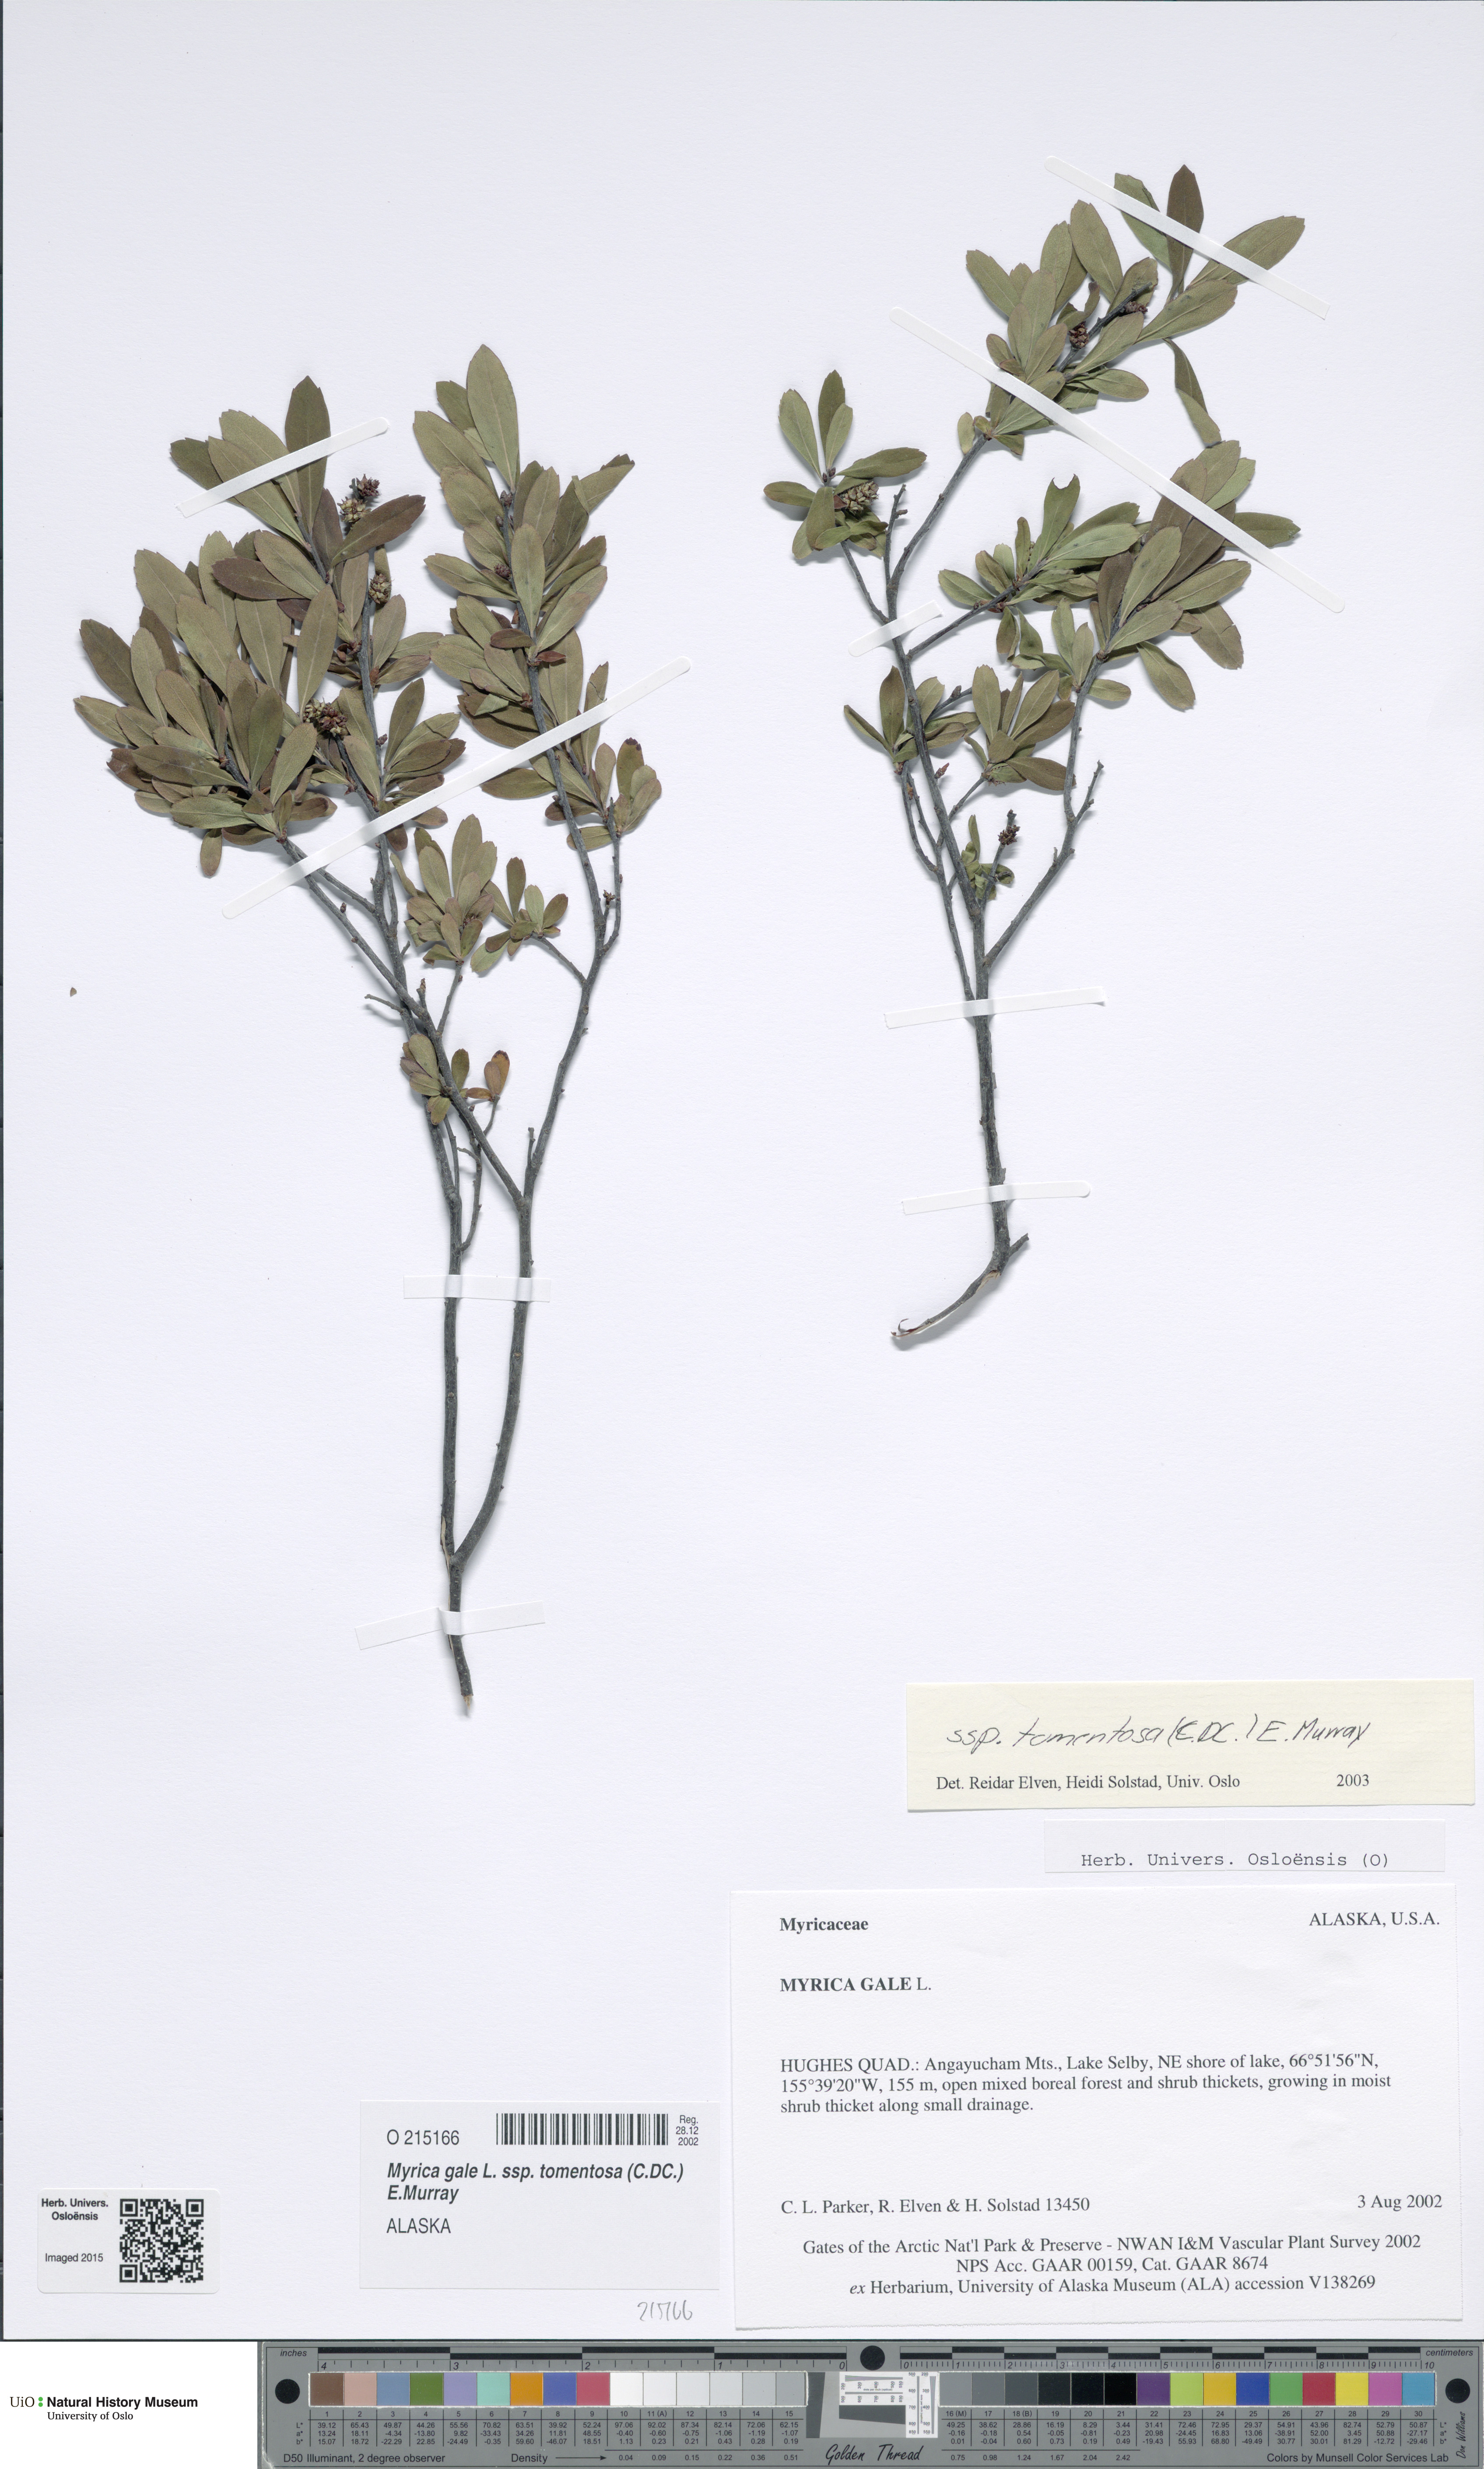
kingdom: Plantae
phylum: Tracheophyta
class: Magnoliopsida
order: Fagales
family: Myricaceae
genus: Myrica
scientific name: Myrica gale
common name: Sweet gale
